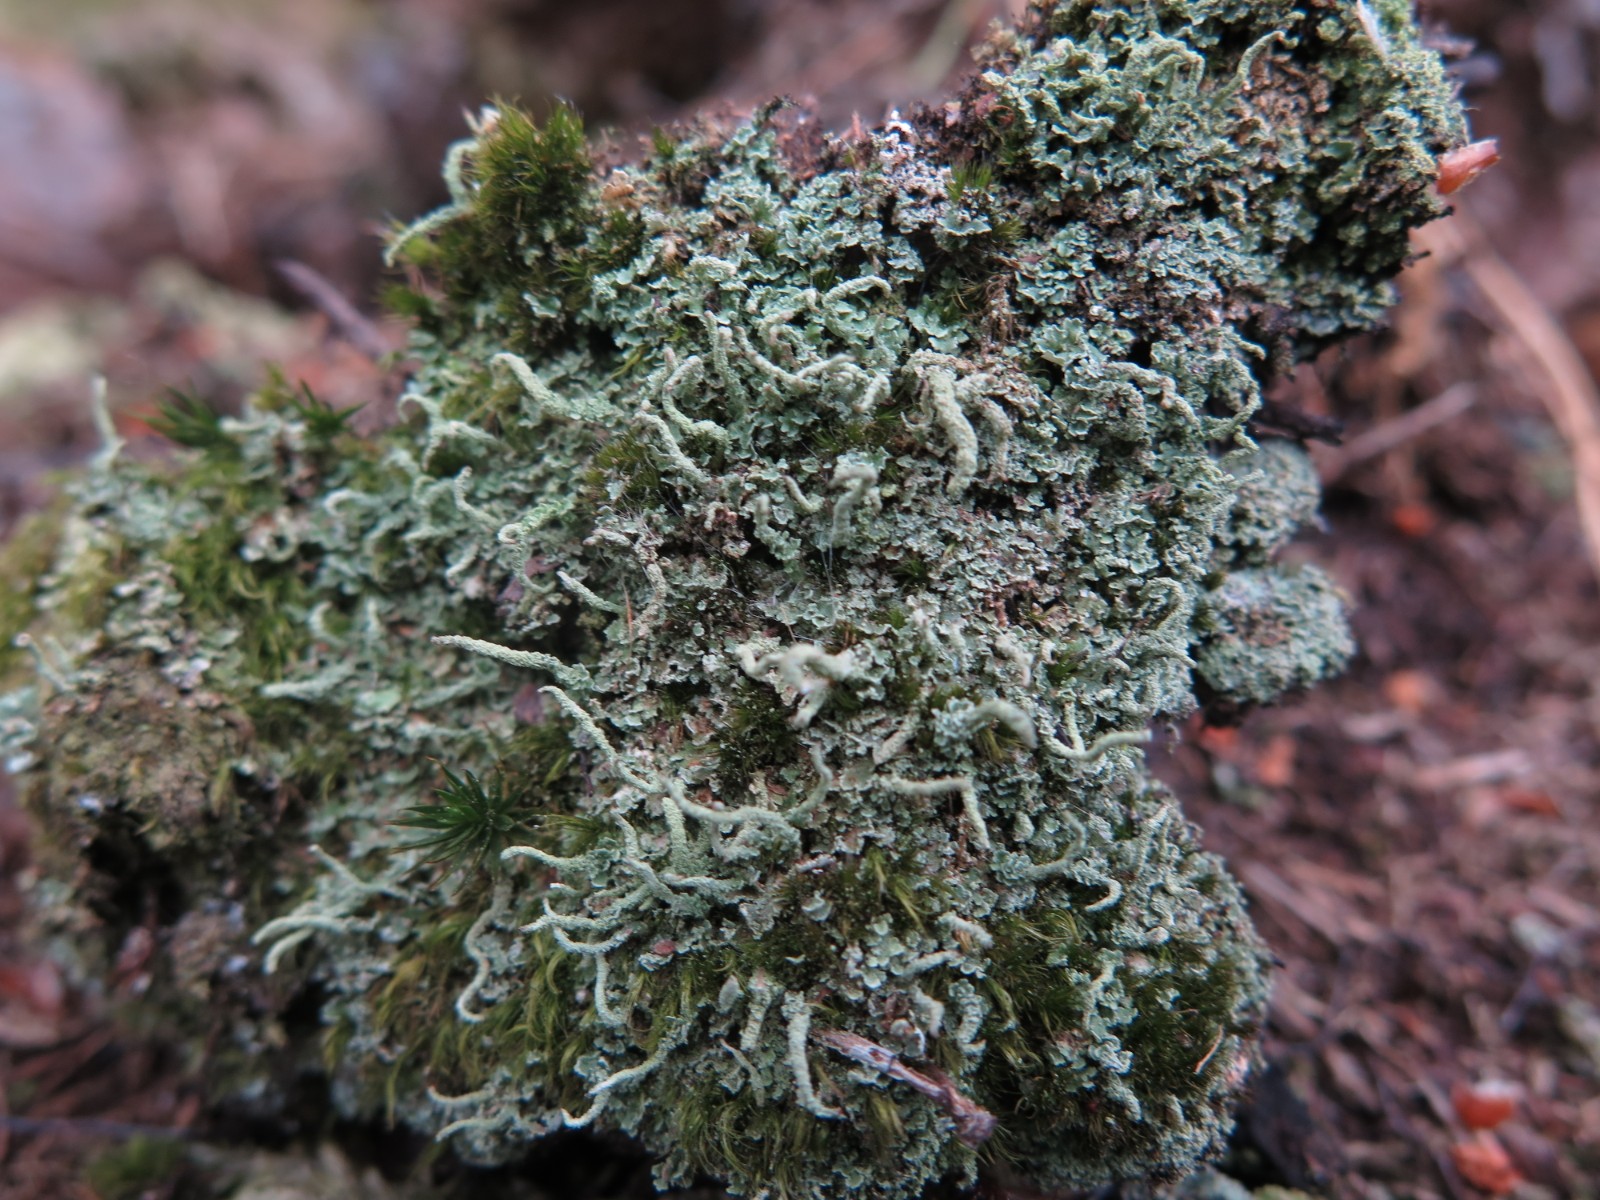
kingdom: Fungi
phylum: Ascomycota
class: Lecanoromycetes
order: Lecanorales
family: Cladoniaceae
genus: Cladonia
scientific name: Cladonia coniocraea
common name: træfods-bægerlav
